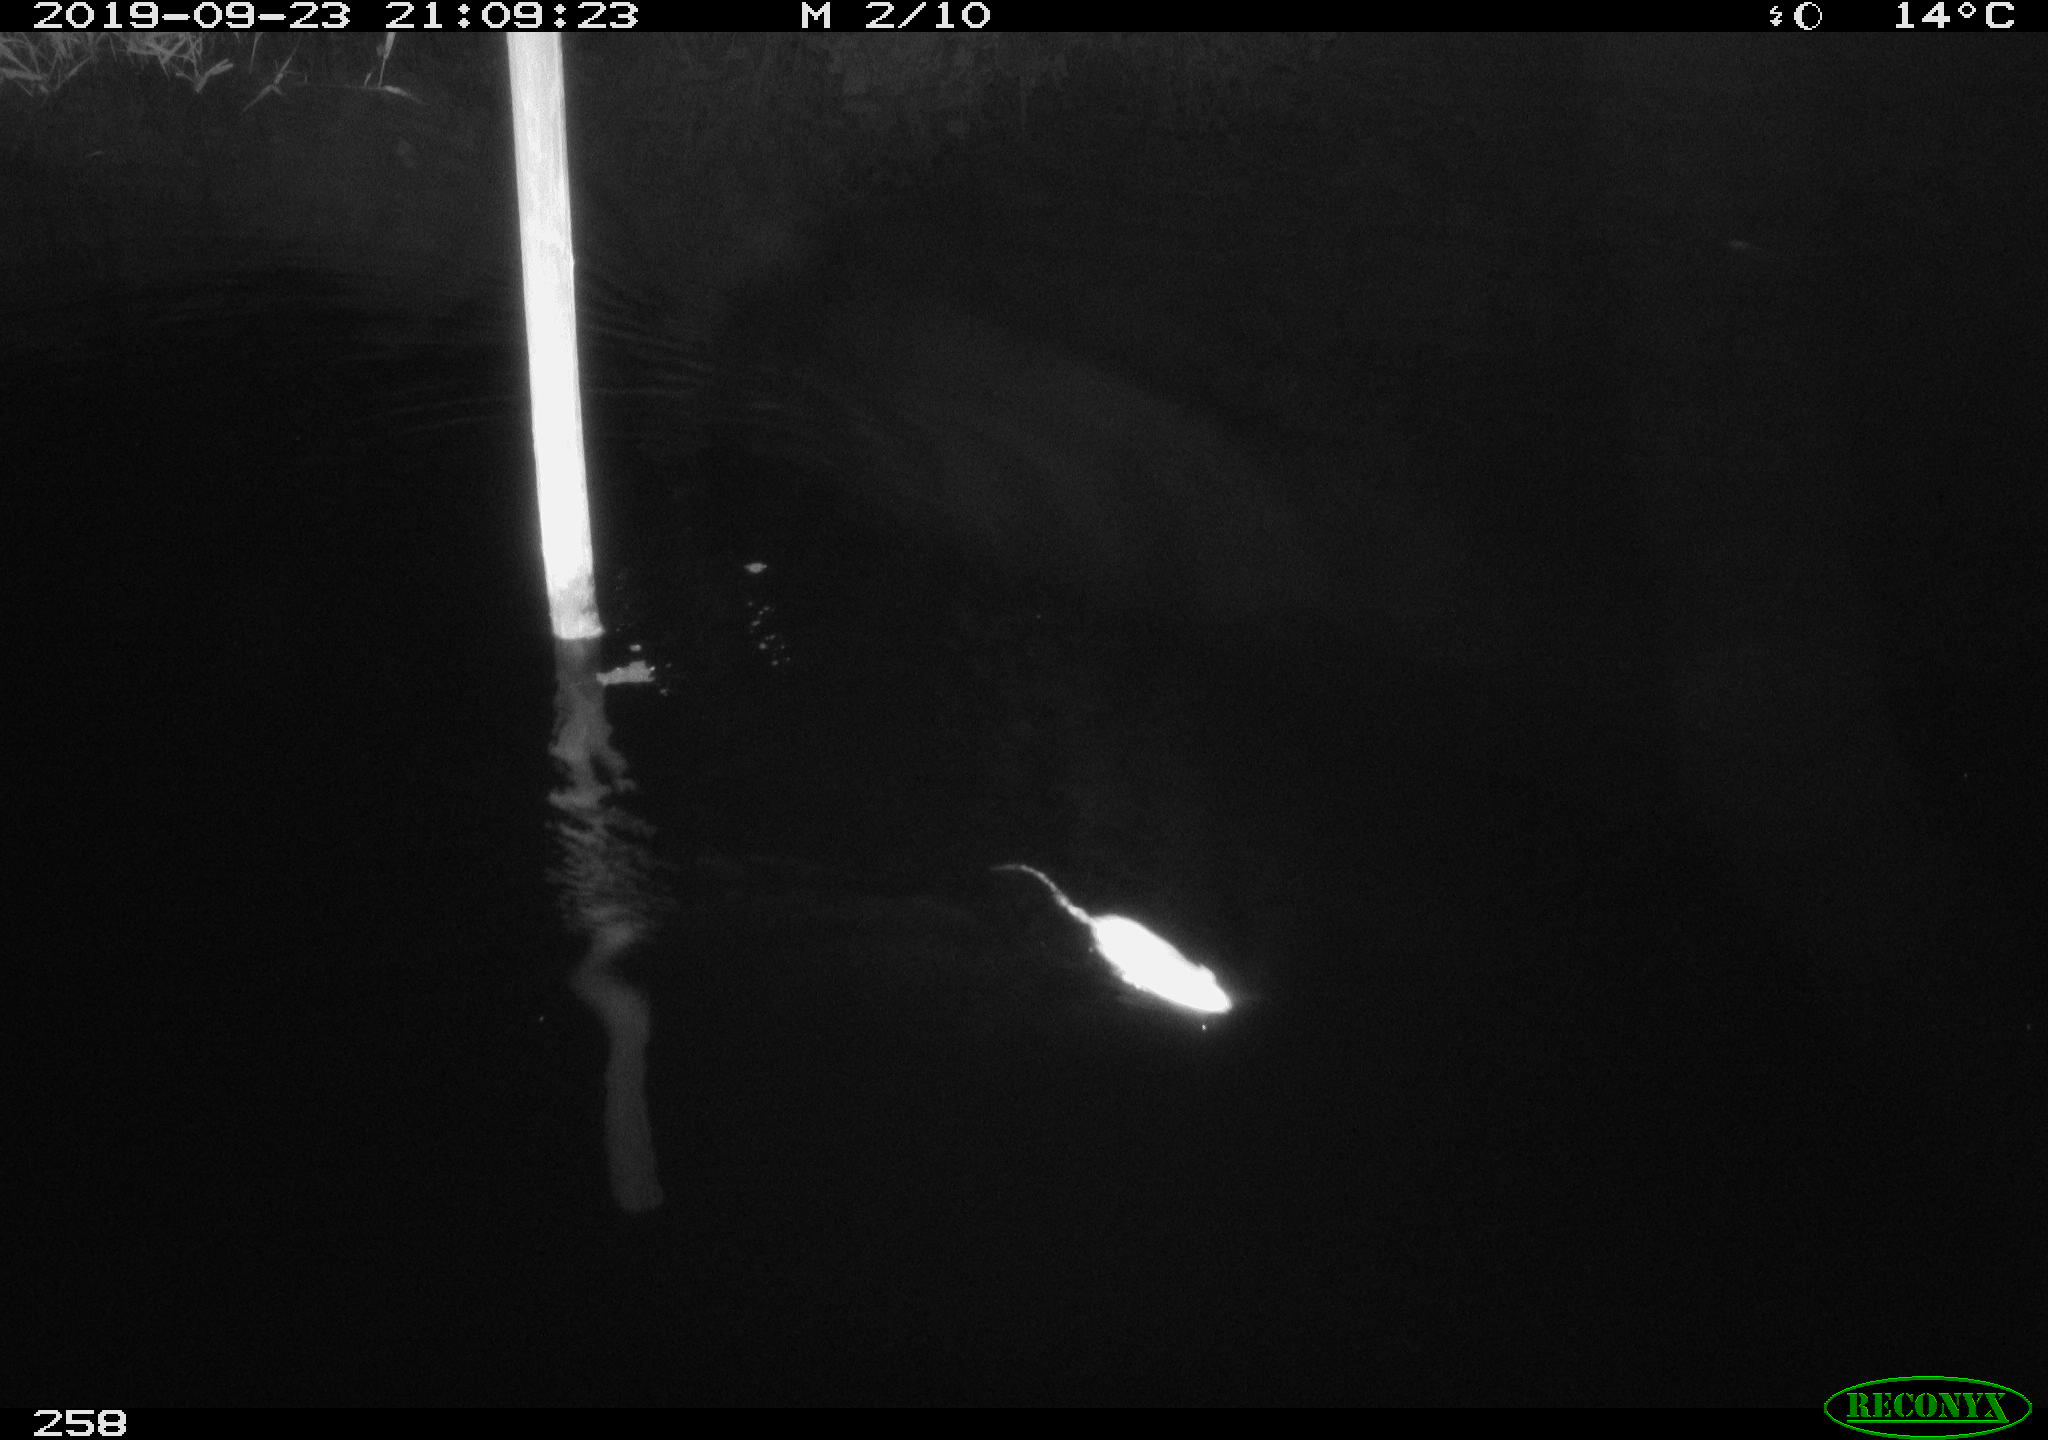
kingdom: Animalia
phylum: Chordata
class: Mammalia
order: Rodentia
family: Muridae
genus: Rattus
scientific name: Rattus norvegicus
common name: Brown rat
